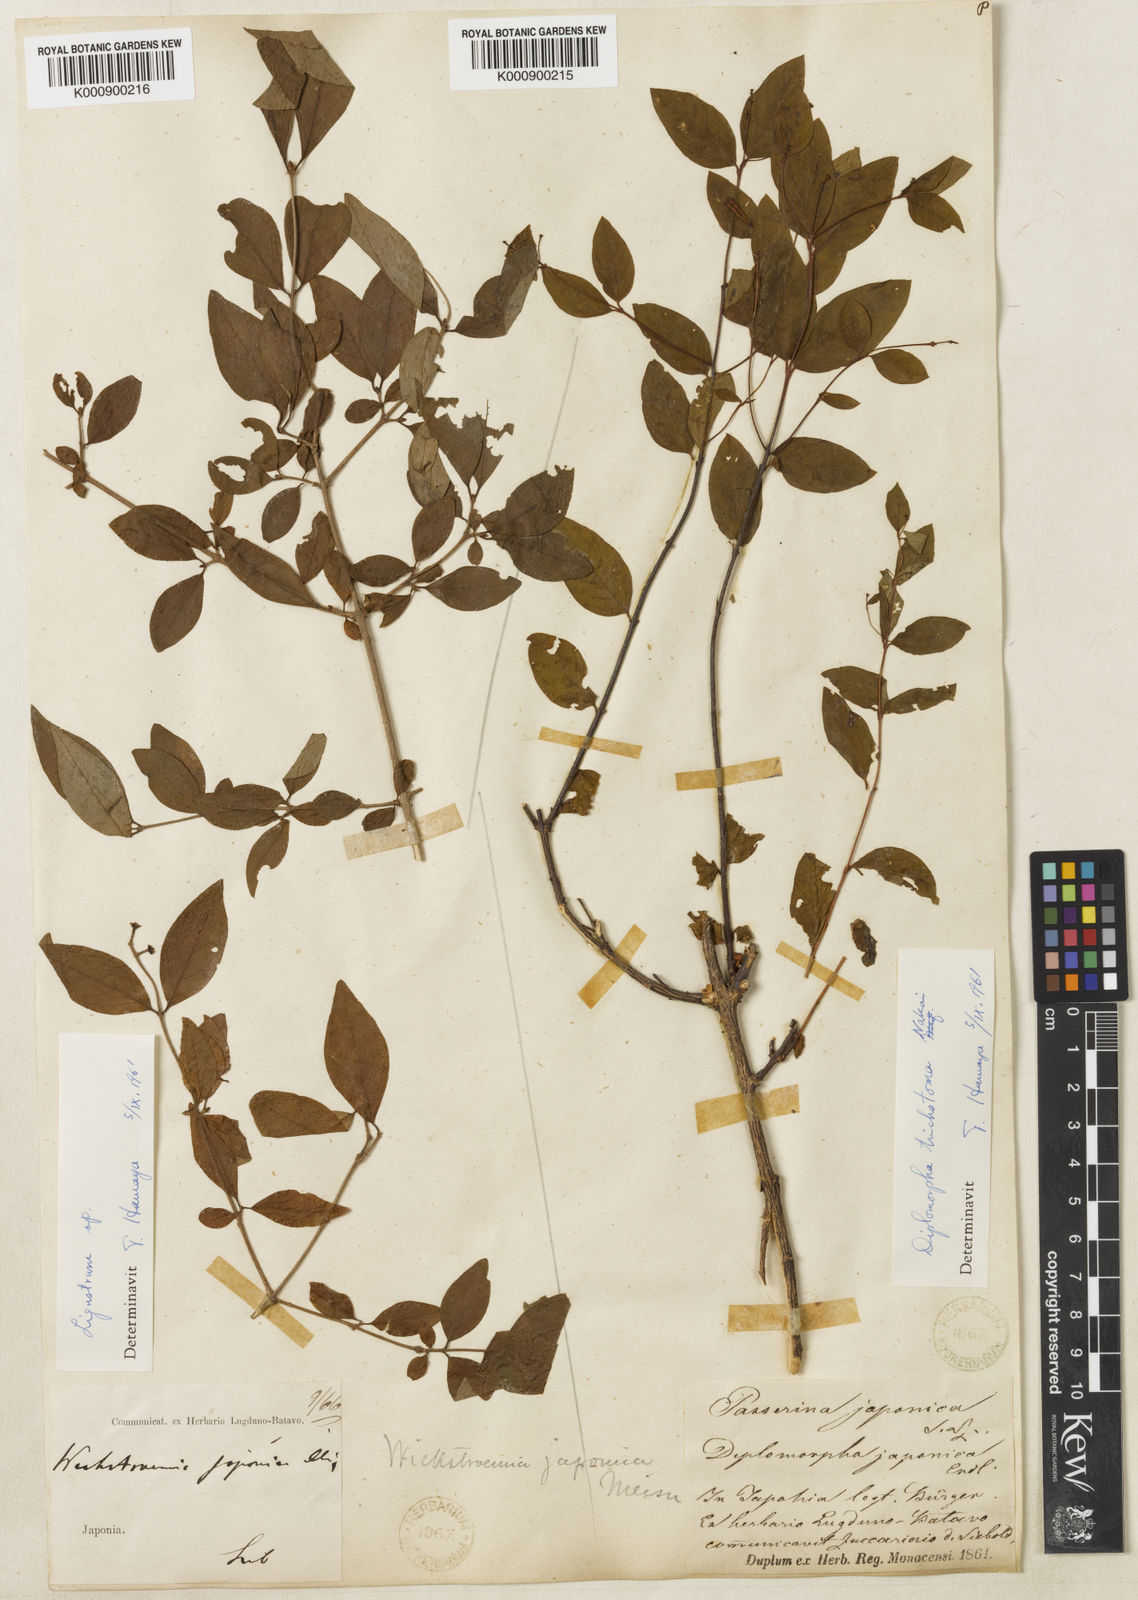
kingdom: Plantae
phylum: Tracheophyta
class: Magnoliopsida
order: Malvales
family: Thymelaeaceae
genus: Wikstroemia
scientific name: Wikstroemia trichotoma
